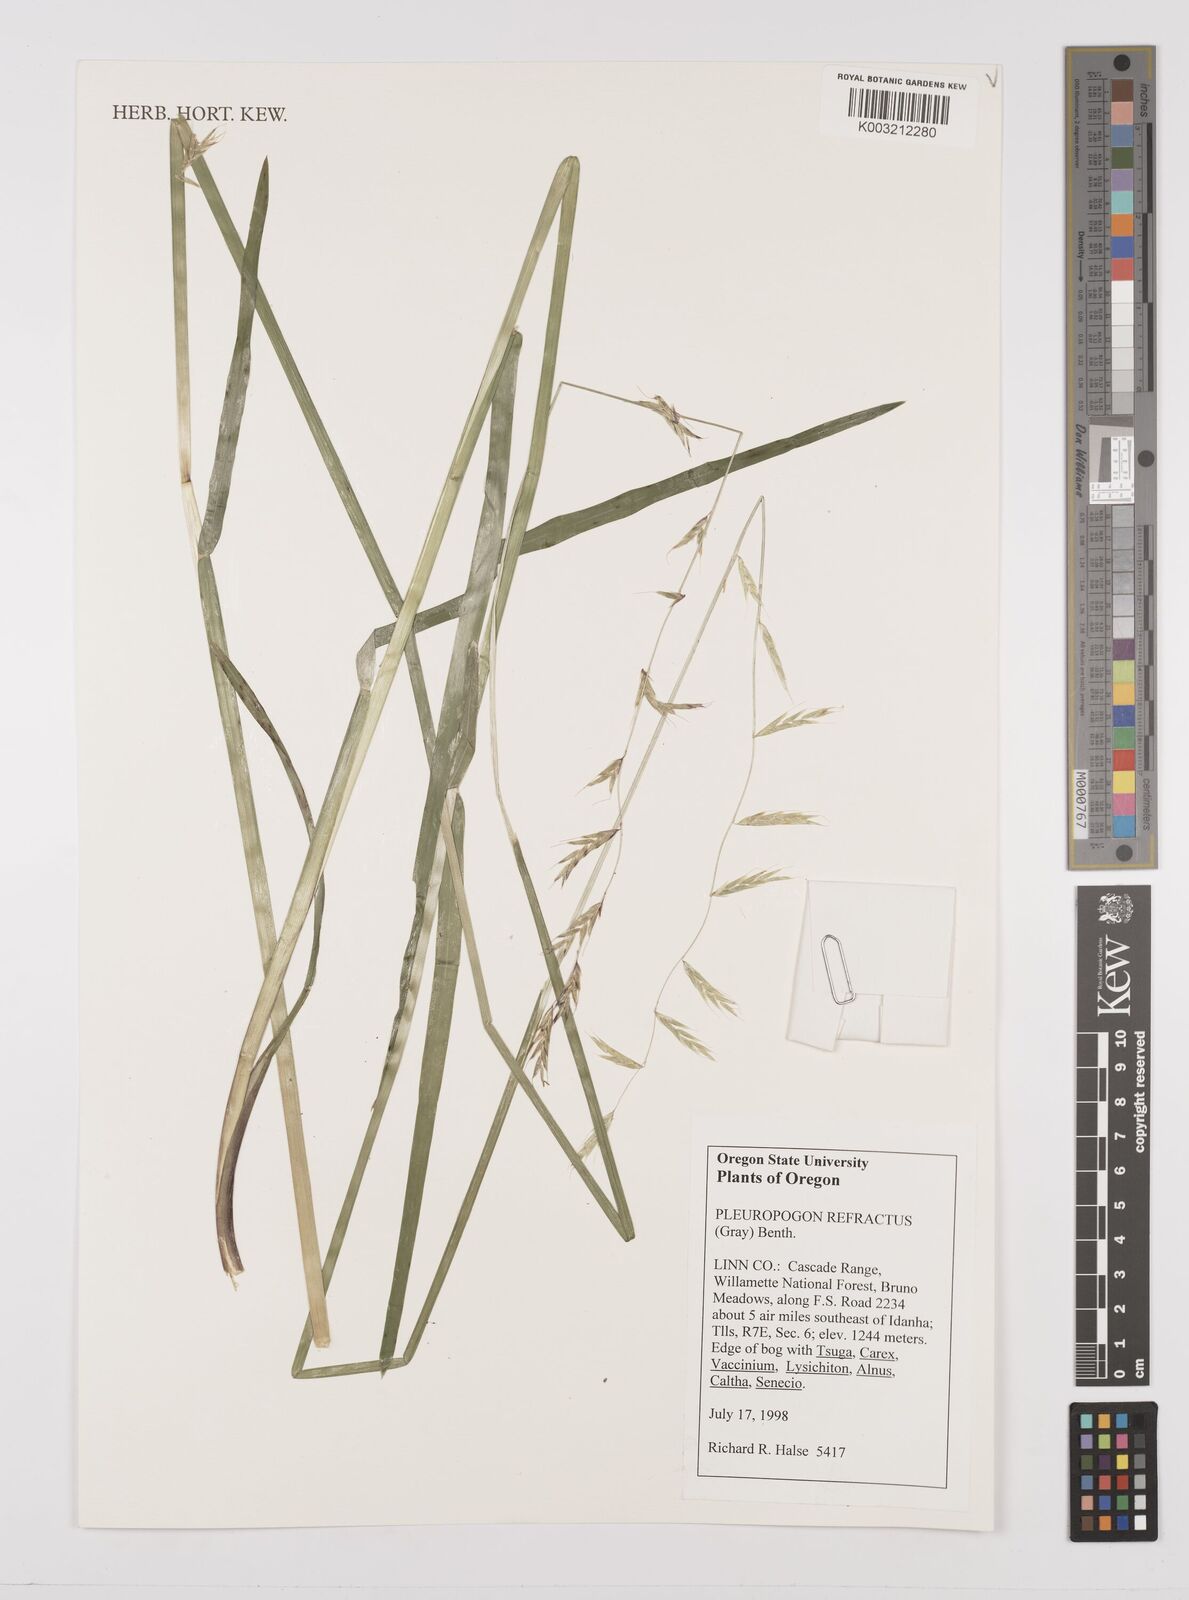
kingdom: Plantae
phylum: Tracheophyta
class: Liliopsida
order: Poales
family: Poaceae
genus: Pleuropogon
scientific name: Pleuropogon refractus
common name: Nodding false semaphoregrass
